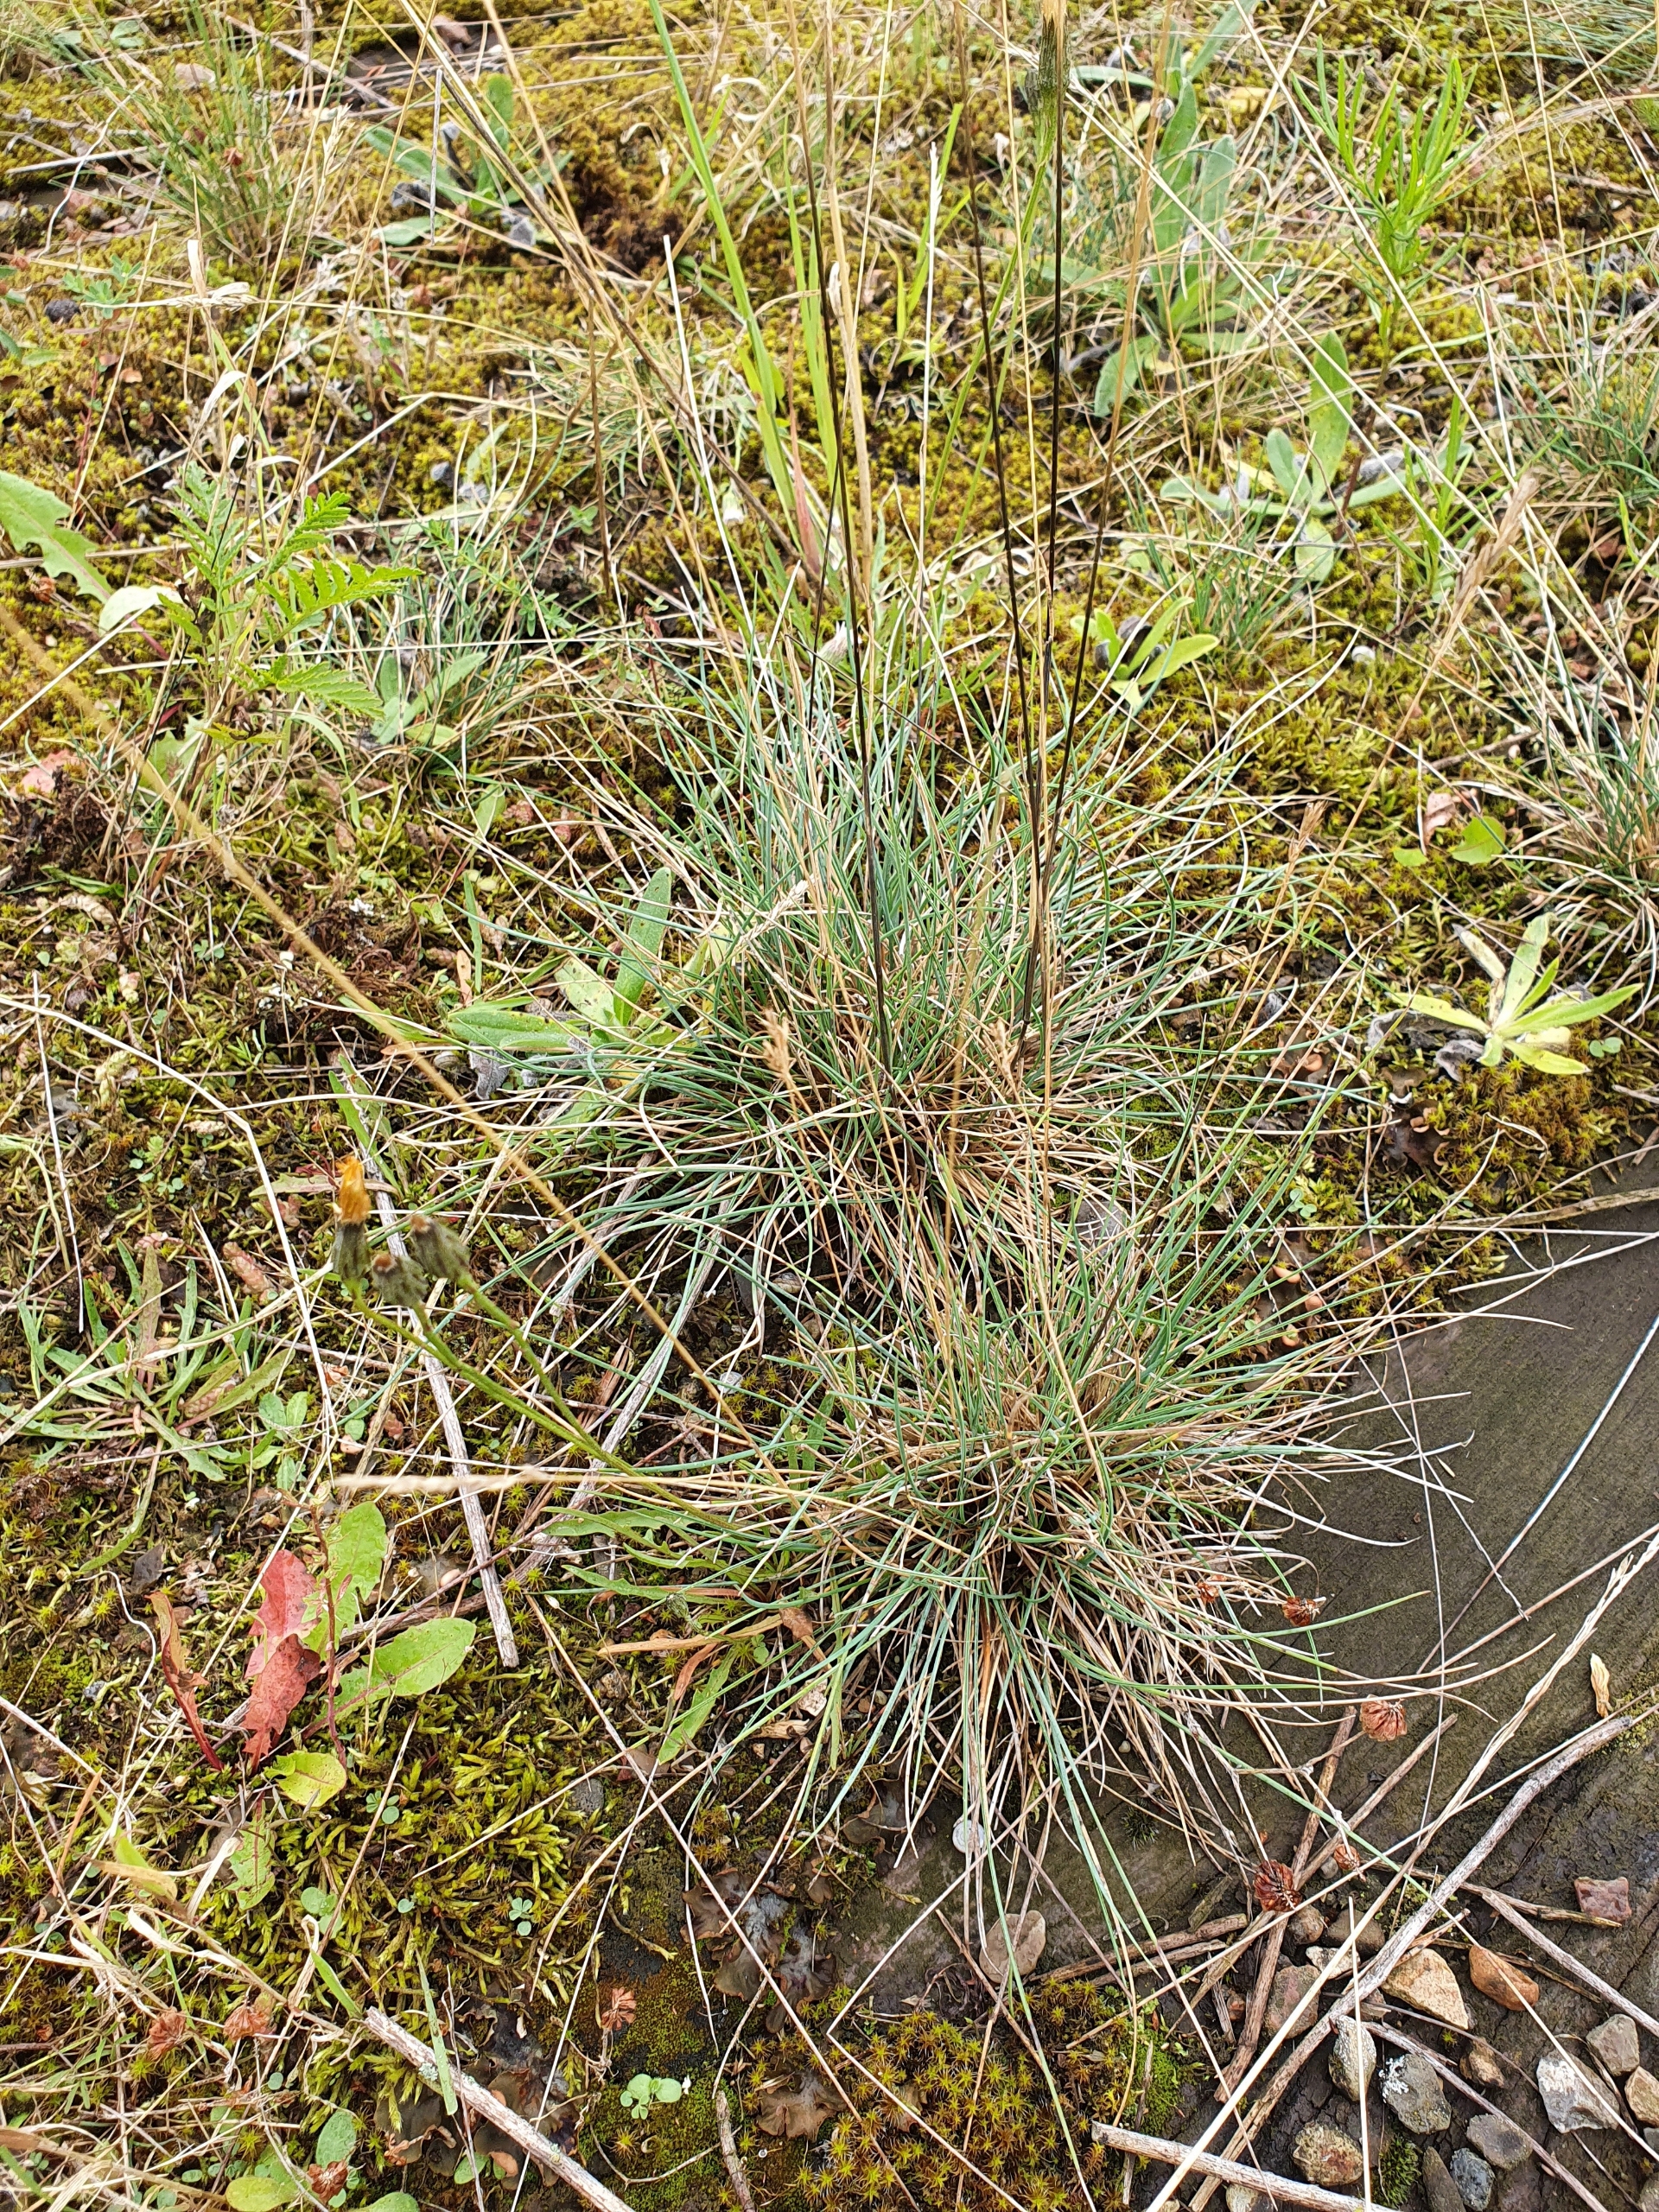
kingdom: Plantae
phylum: Tracheophyta
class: Liliopsida
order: Poales
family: Poaceae
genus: Festuca
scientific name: Festuca trachyphylla
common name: Bakke-svingel
